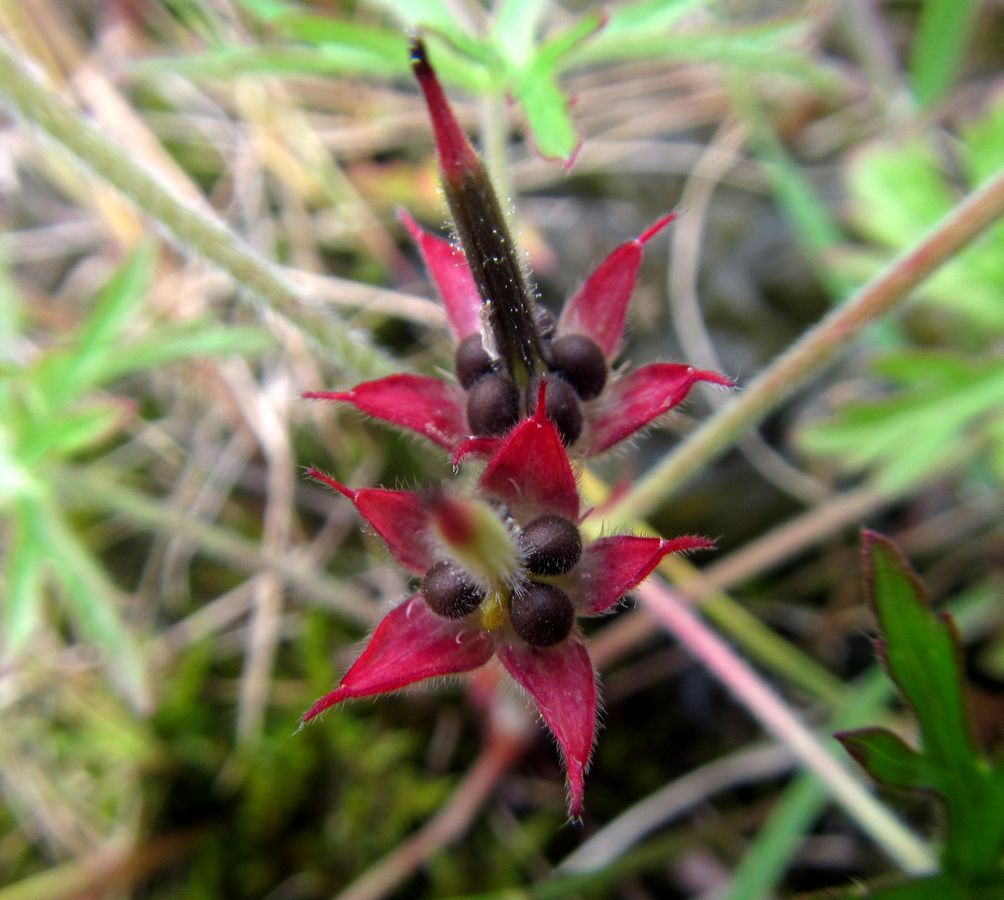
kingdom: Plantae
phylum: Tracheophyta
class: Magnoliopsida
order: Geraniales
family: Geraniaceae
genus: Geranium
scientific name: Geranium dissectum
